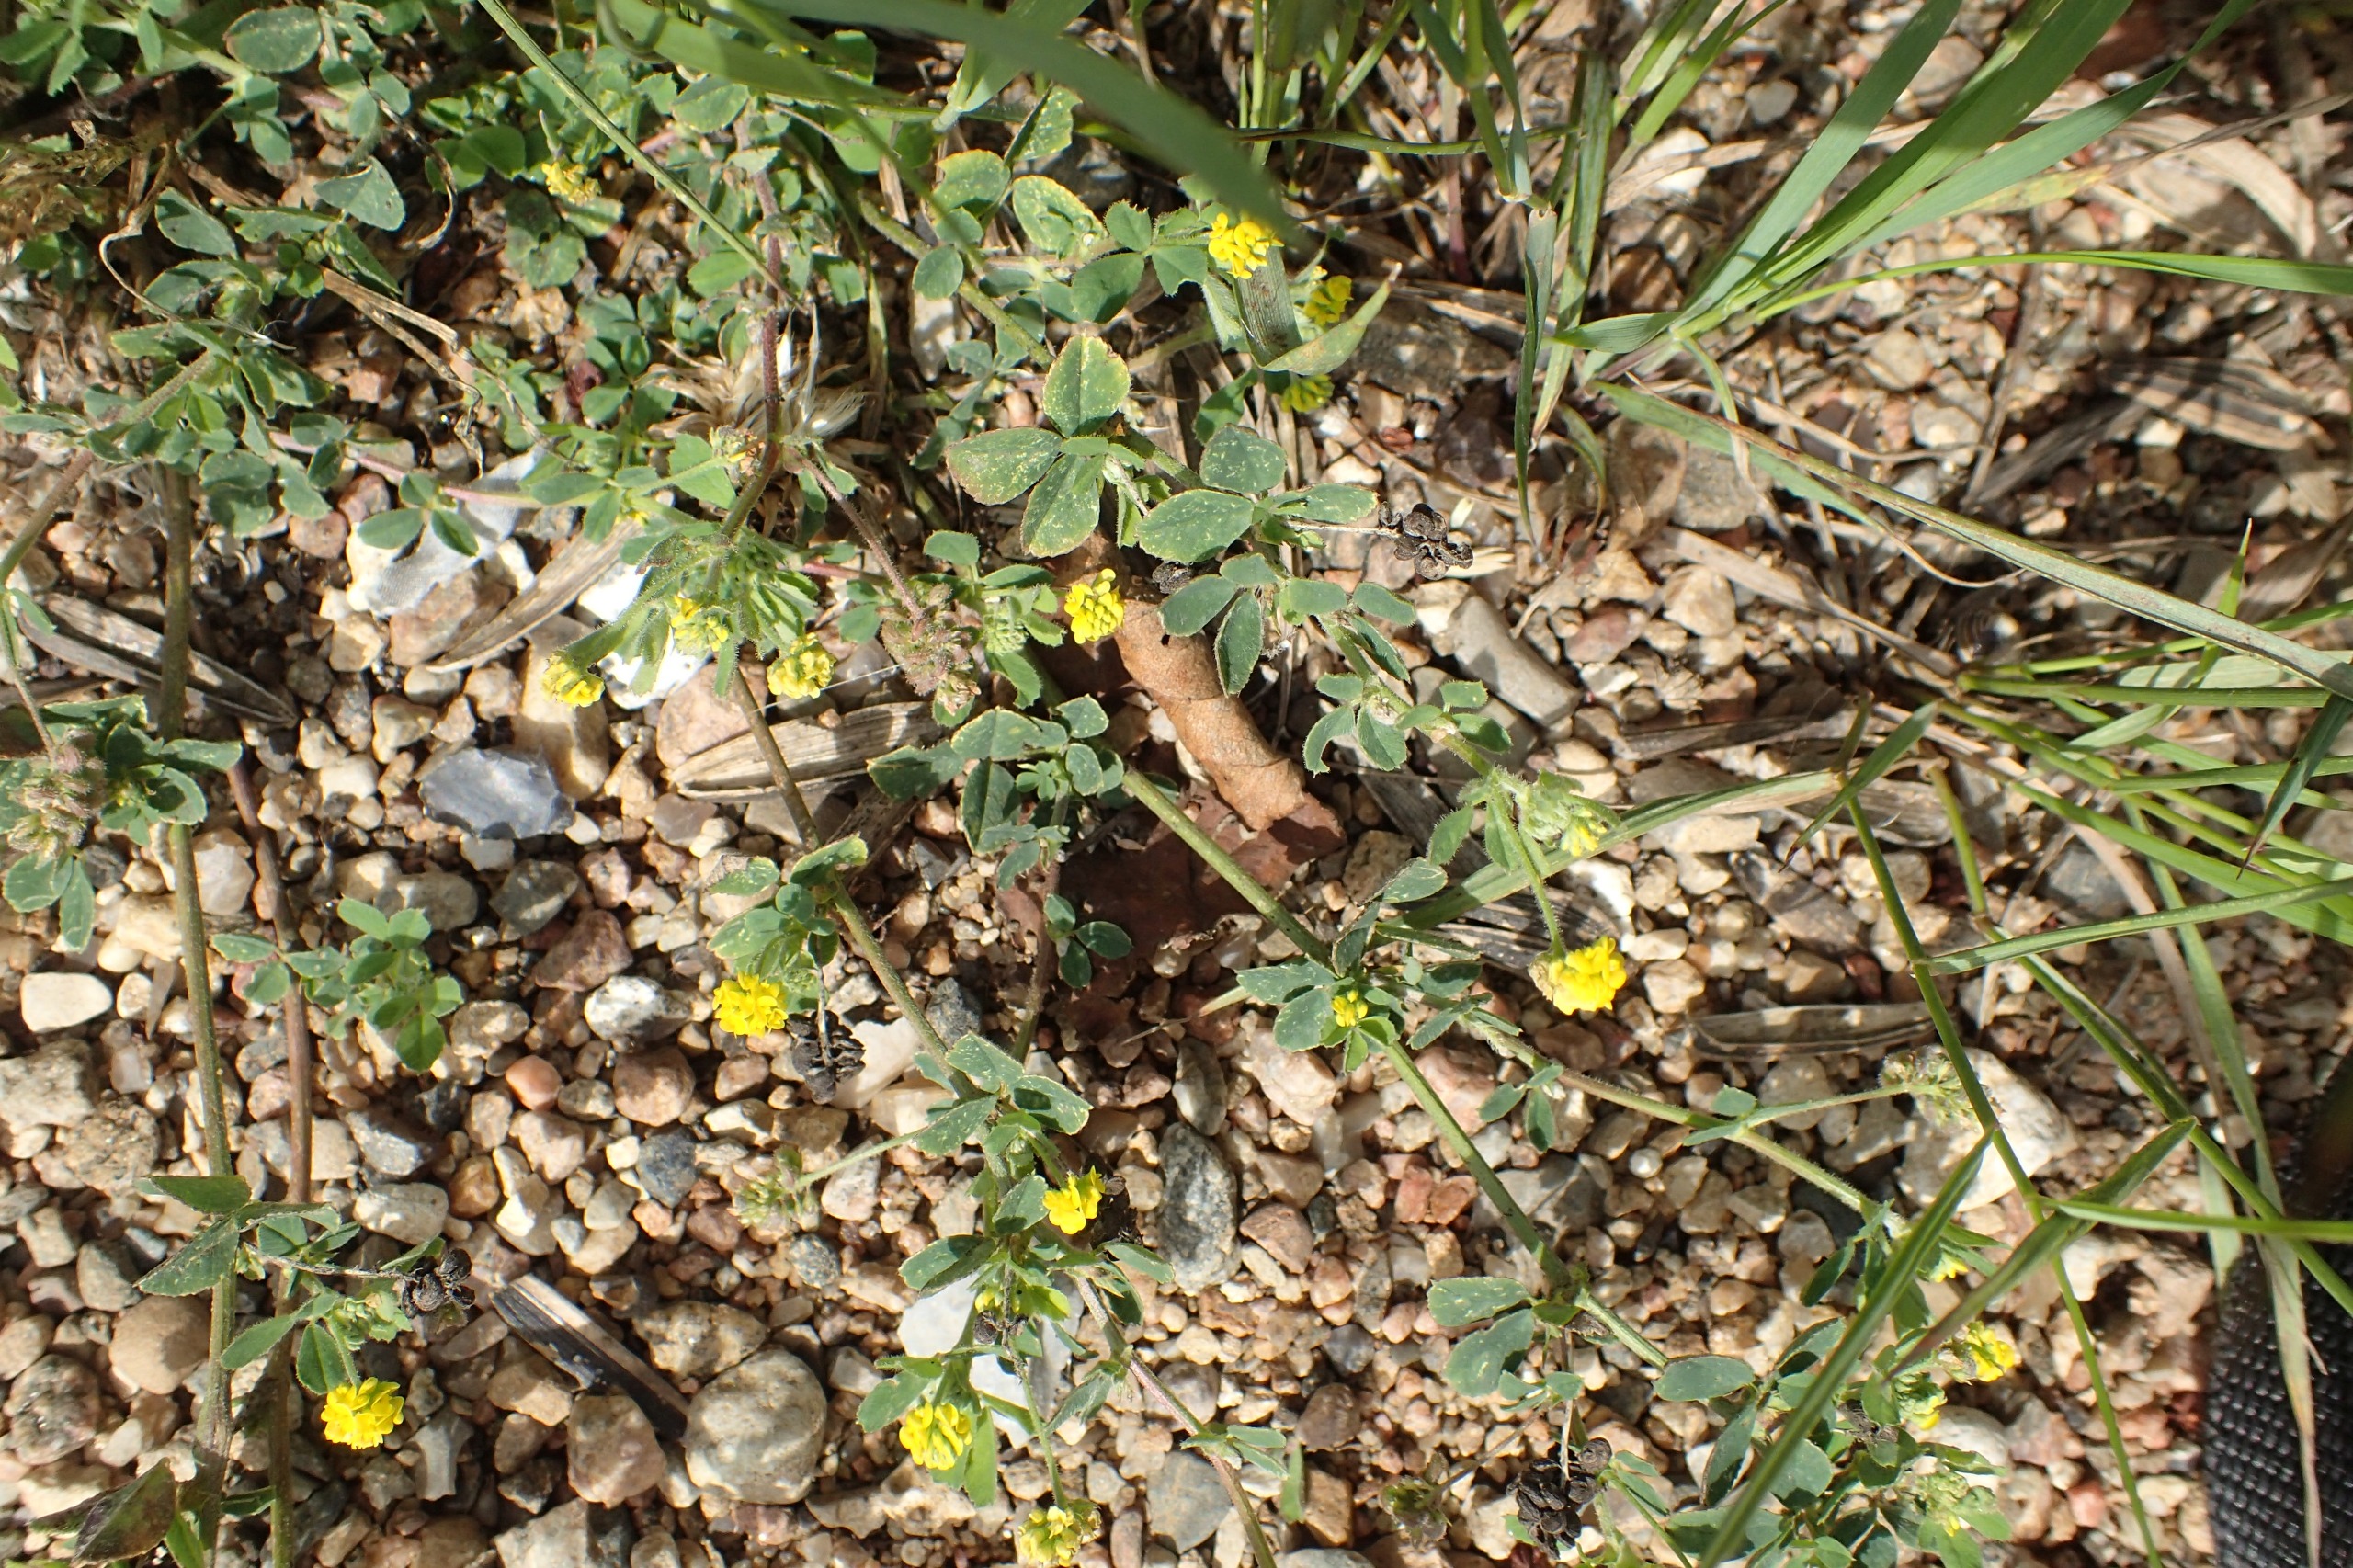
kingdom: Plantae
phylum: Tracheophyta
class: Magnoliopsida
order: Fabales
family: Fabaceae
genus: Medicago
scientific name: Medicago lupulina
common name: Humle-sneglebælg
